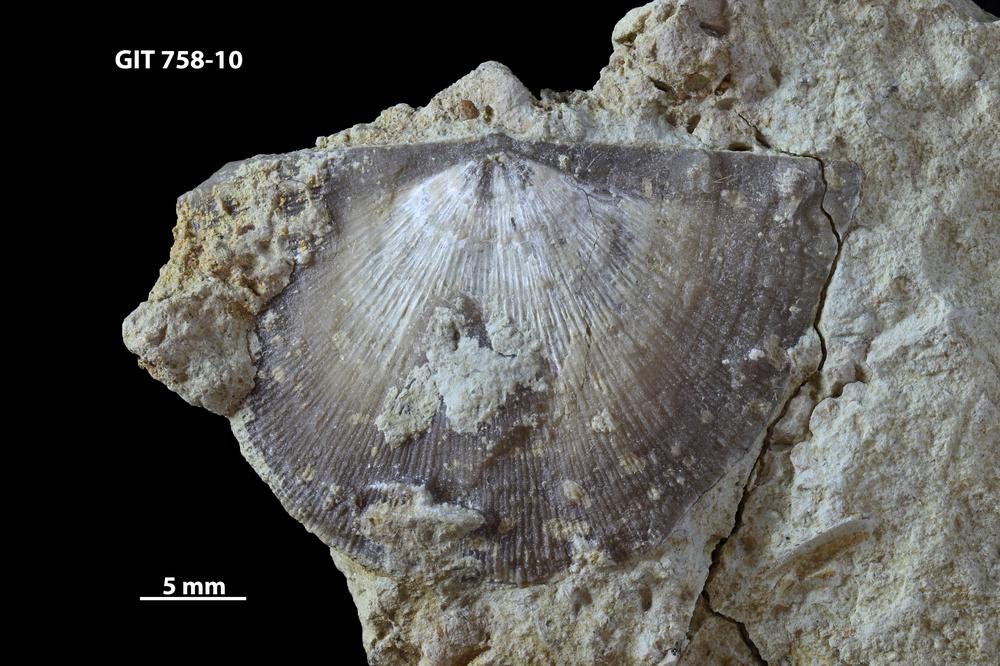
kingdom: Animalia
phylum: Brachiopoda
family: Gonambonitidae
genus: Gonambonites
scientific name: Gonambonites plana
